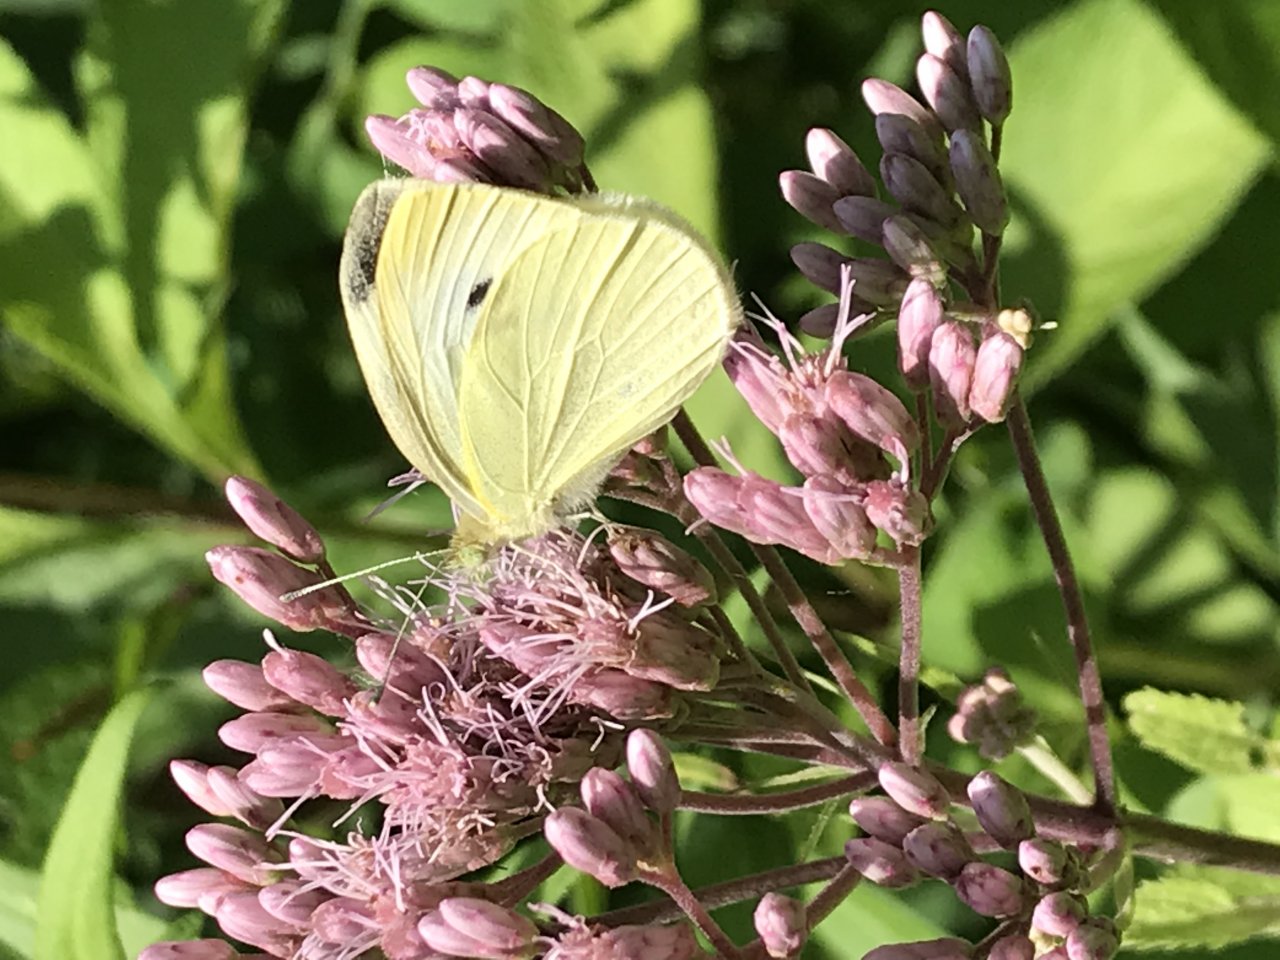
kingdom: Animalia
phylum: Arthropoda
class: Insecta
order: Lepidoptera
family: Pieridae
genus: Pieris
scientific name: Pieris rapae
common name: Cabbage White
